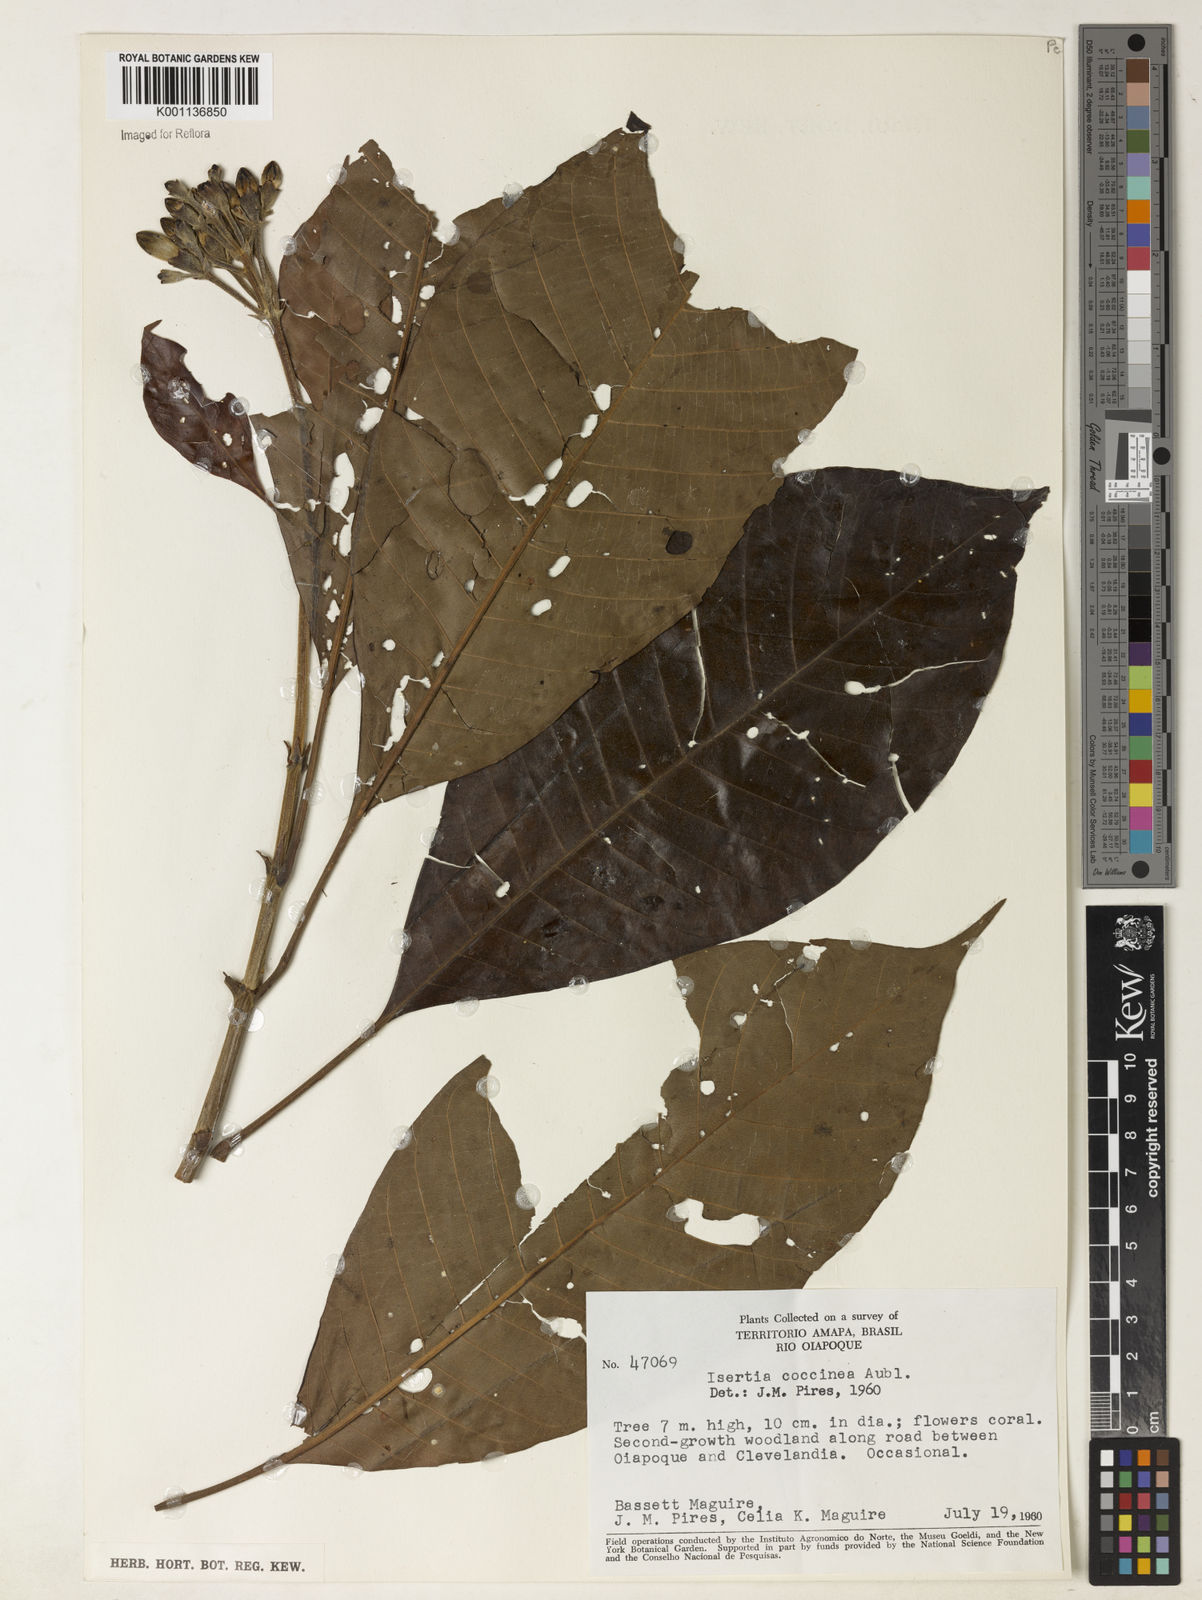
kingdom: Plantae
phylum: Tracheophyta
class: Magnoliopsida
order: Gentianales
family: Rubiaceae
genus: Isertia
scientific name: Isertia coccinea
